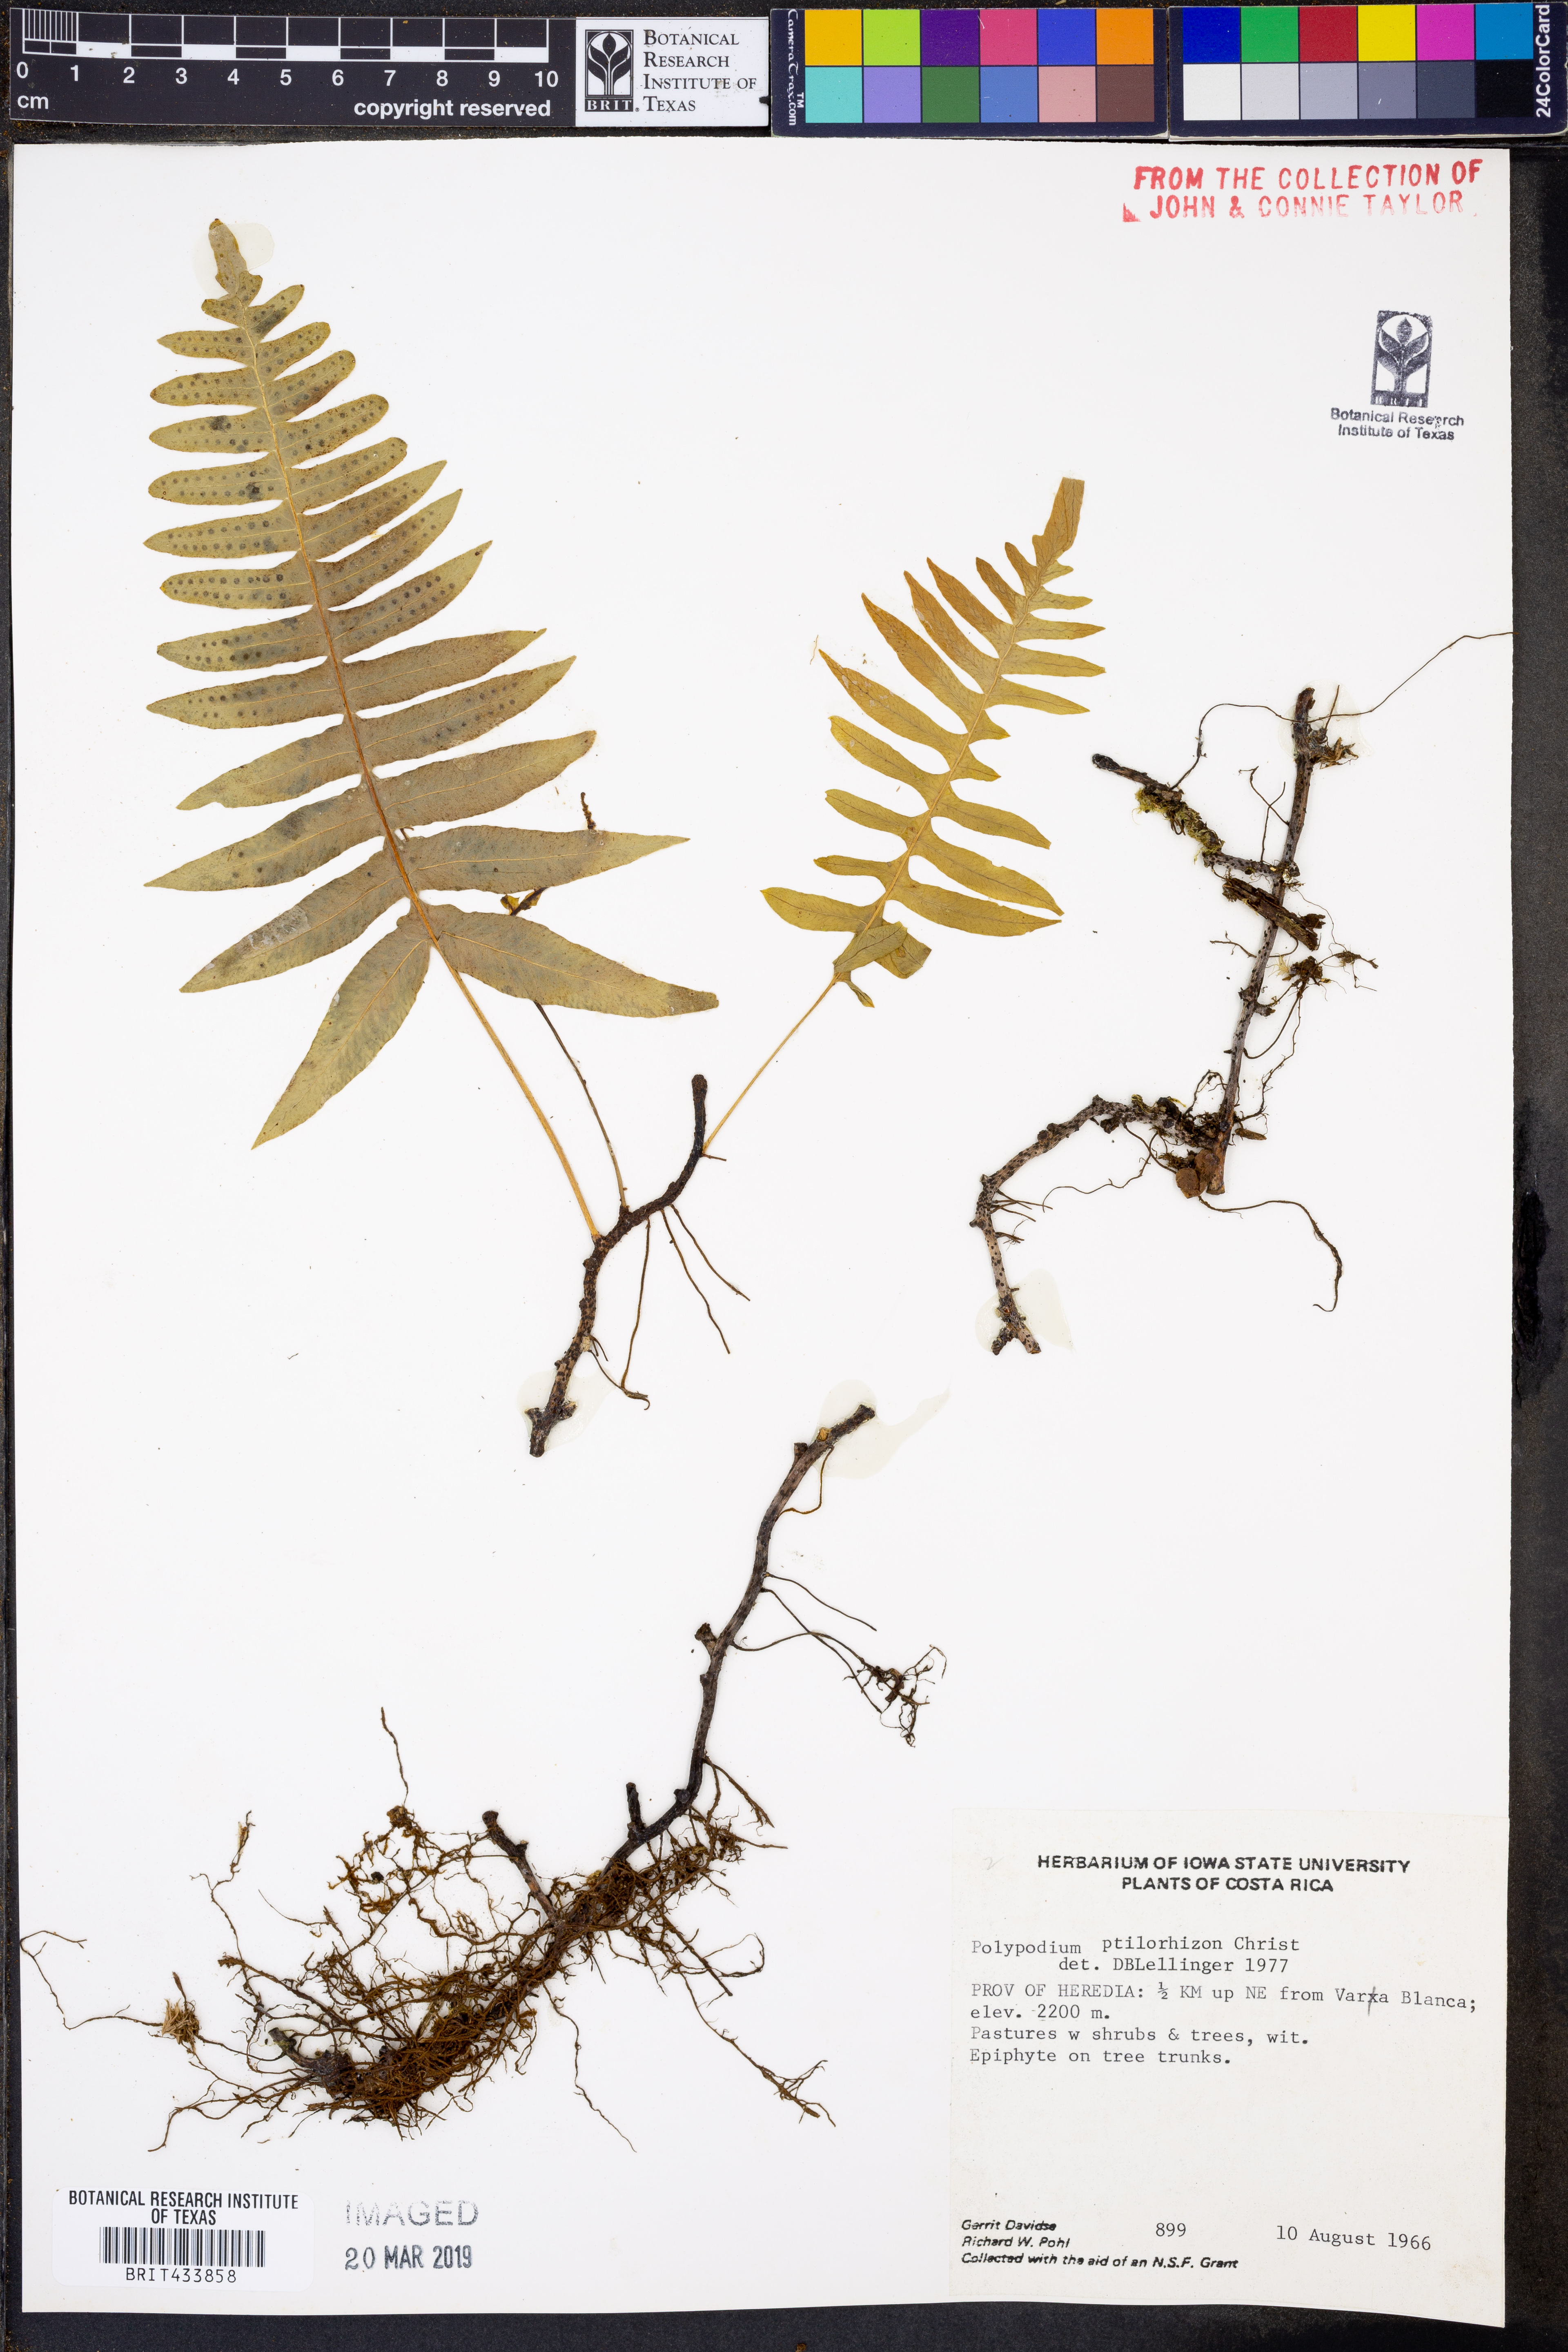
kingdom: Plantae
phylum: Tracheophyta
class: Polypodiopsida
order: Polypodiales
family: Polypodiaceae
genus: Serpocaulon
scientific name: Serpocaulon ptilorhizon
